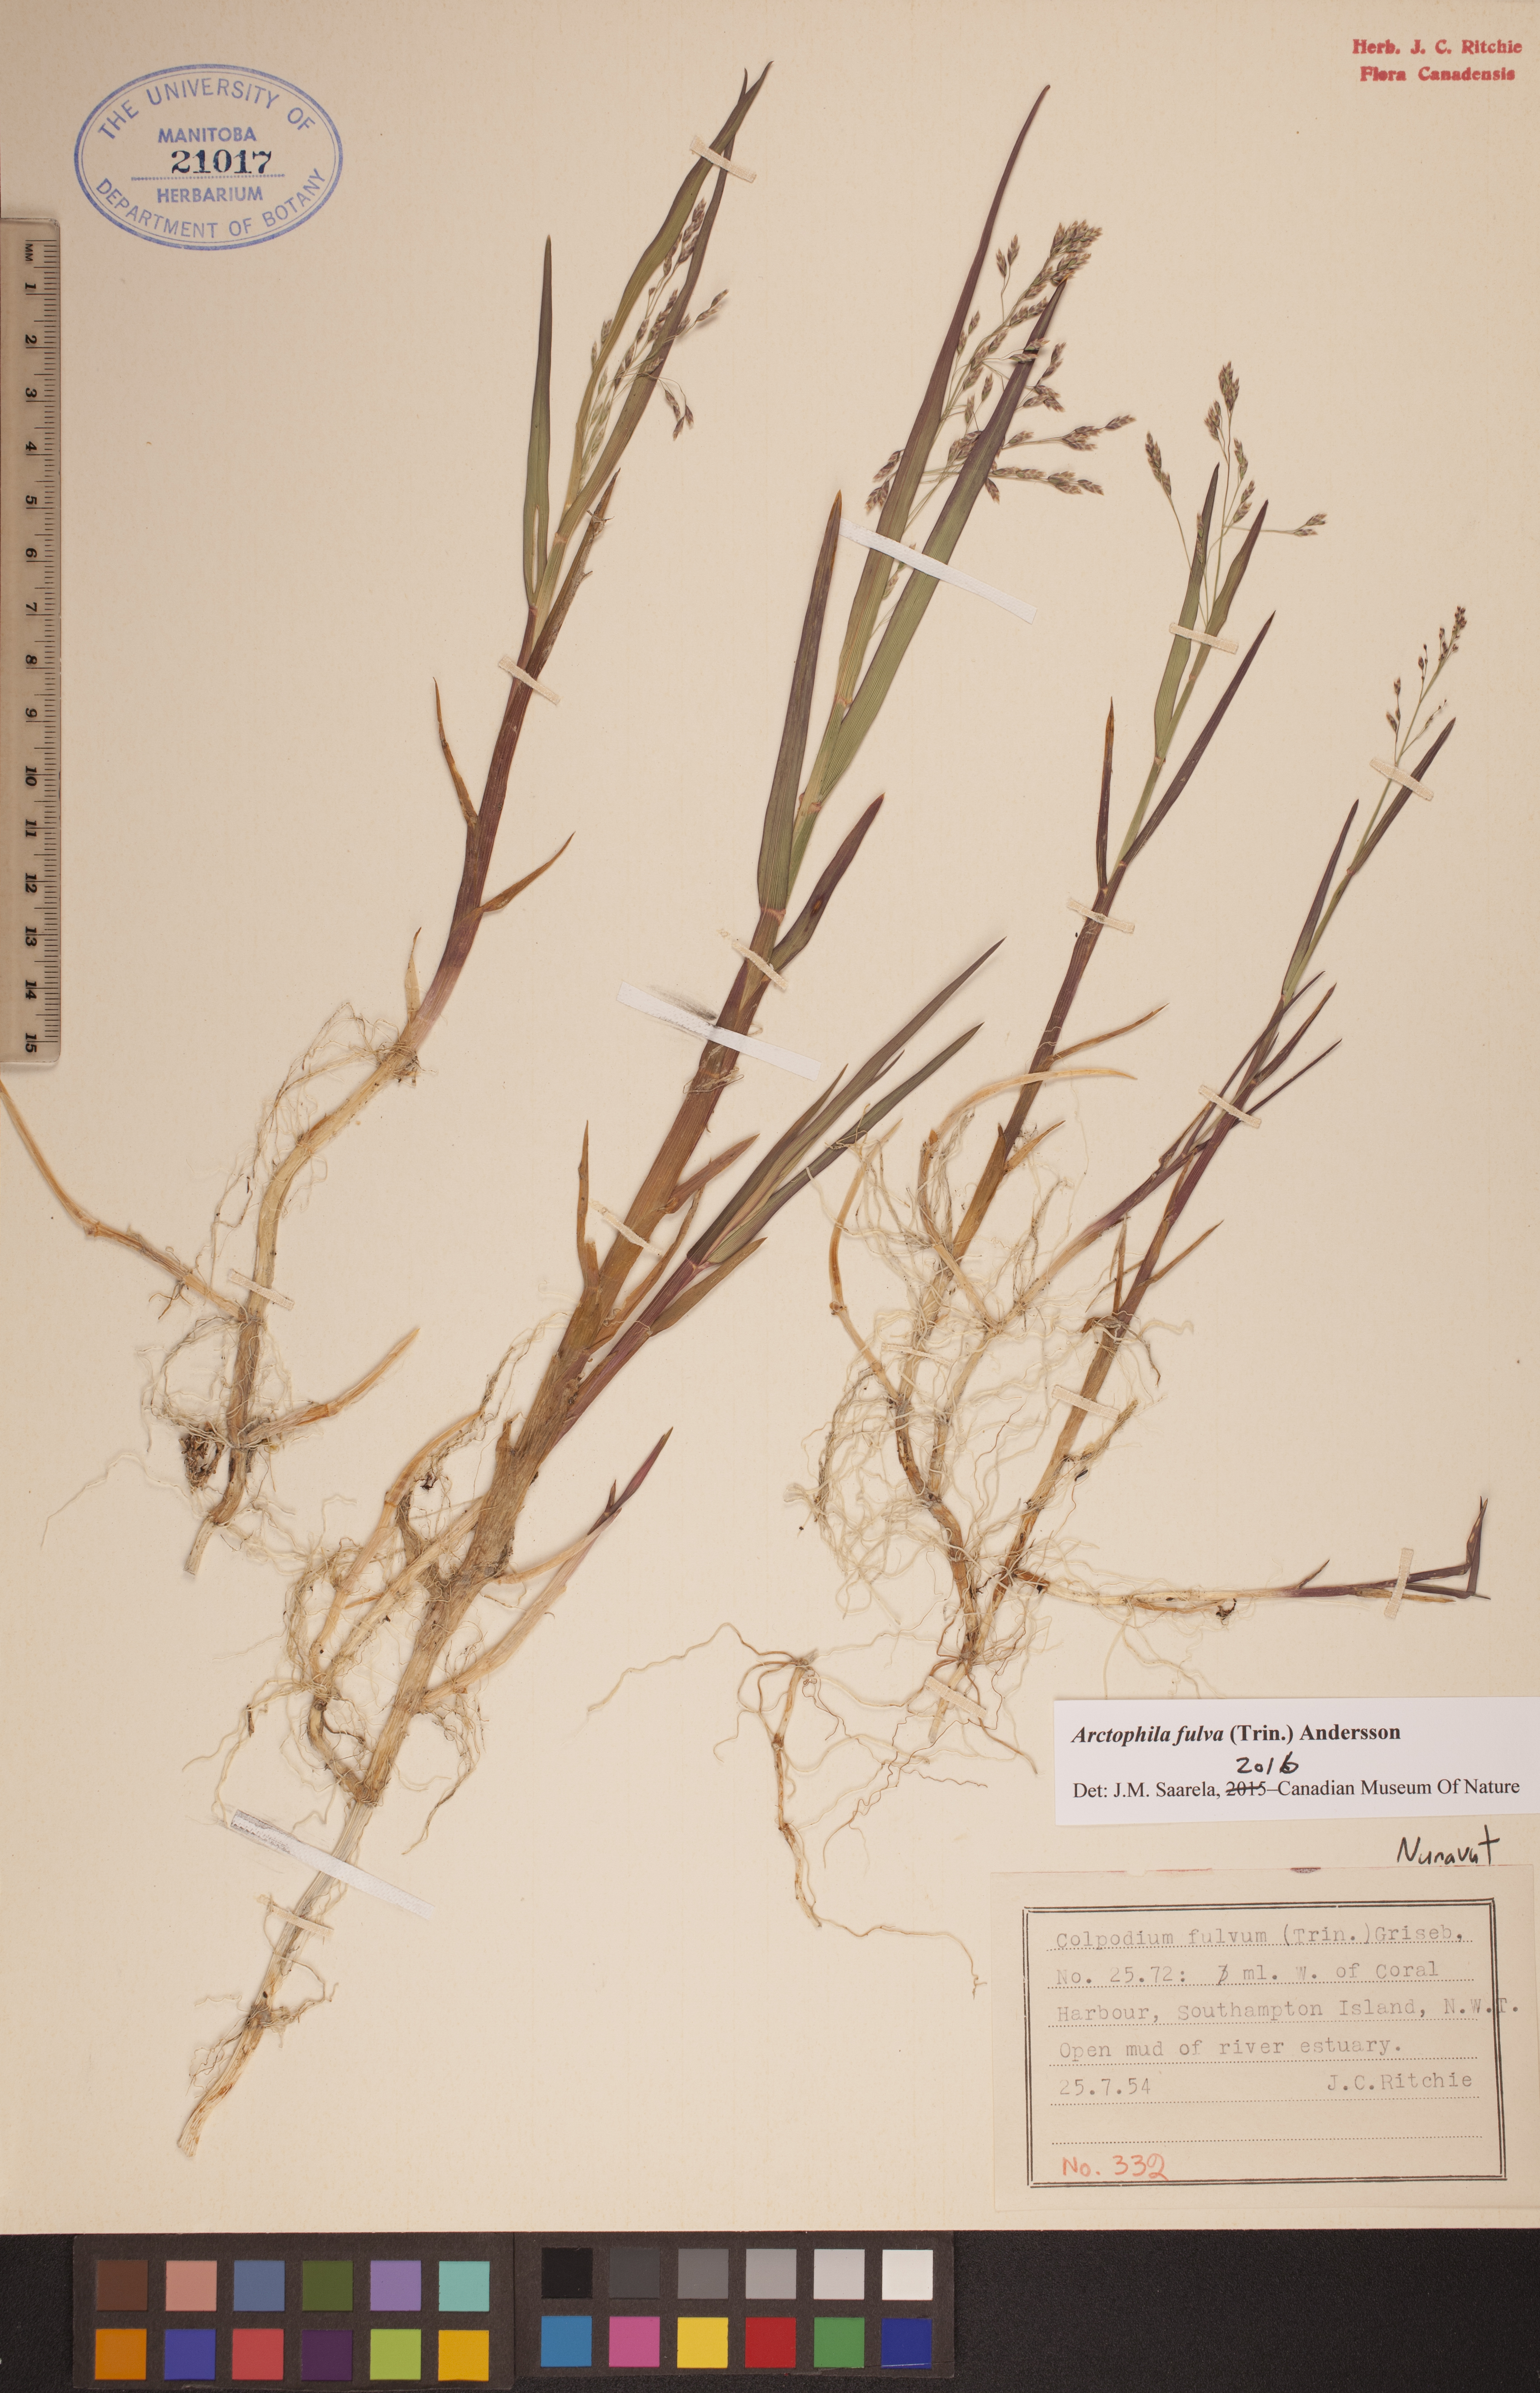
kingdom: Plantae
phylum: Tracheophyta
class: Liliopsida
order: Poales
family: Poaceae
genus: Dupontia
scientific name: Dupontia fulva
